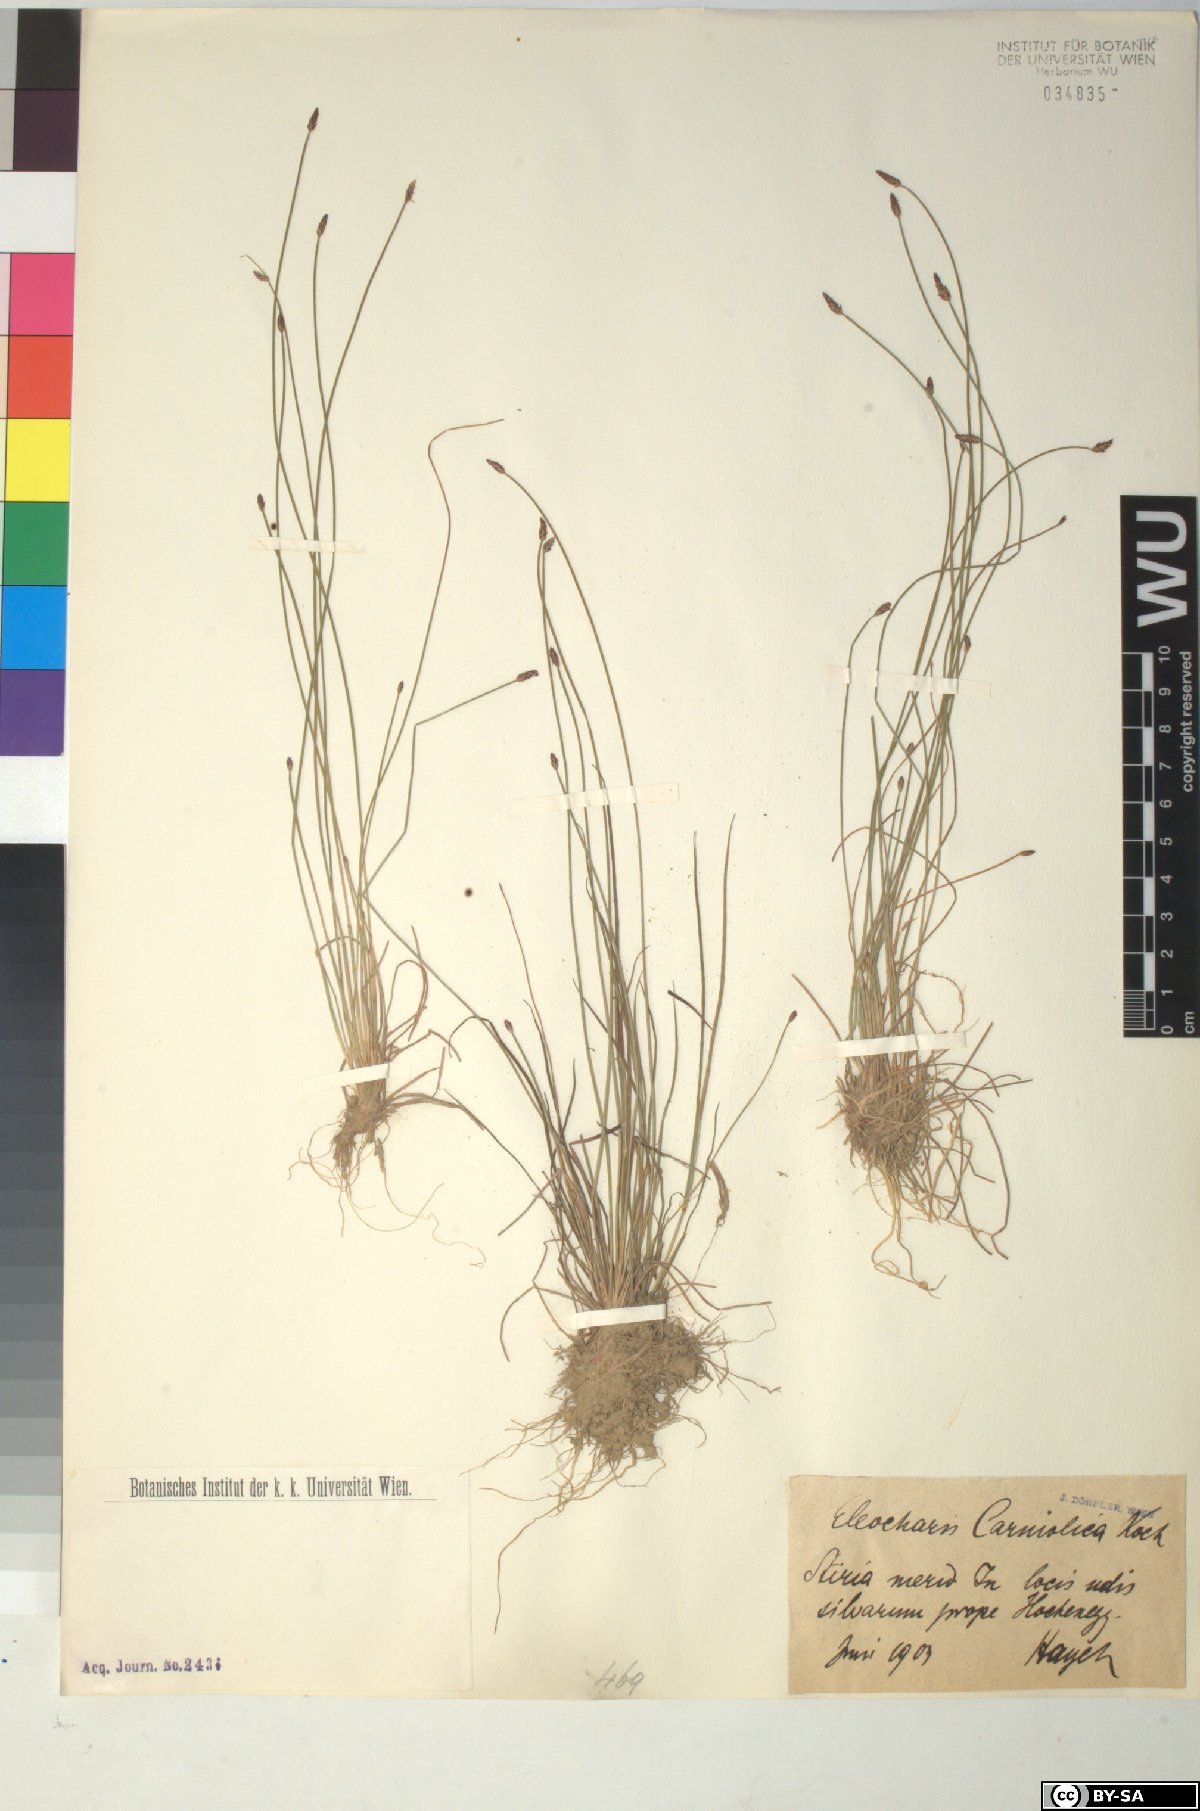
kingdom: Plantae
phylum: Tracheophyta
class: Liliopsida
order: Poales
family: Cyperaceae
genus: Eleocharis
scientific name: Eleocharis carniolica
